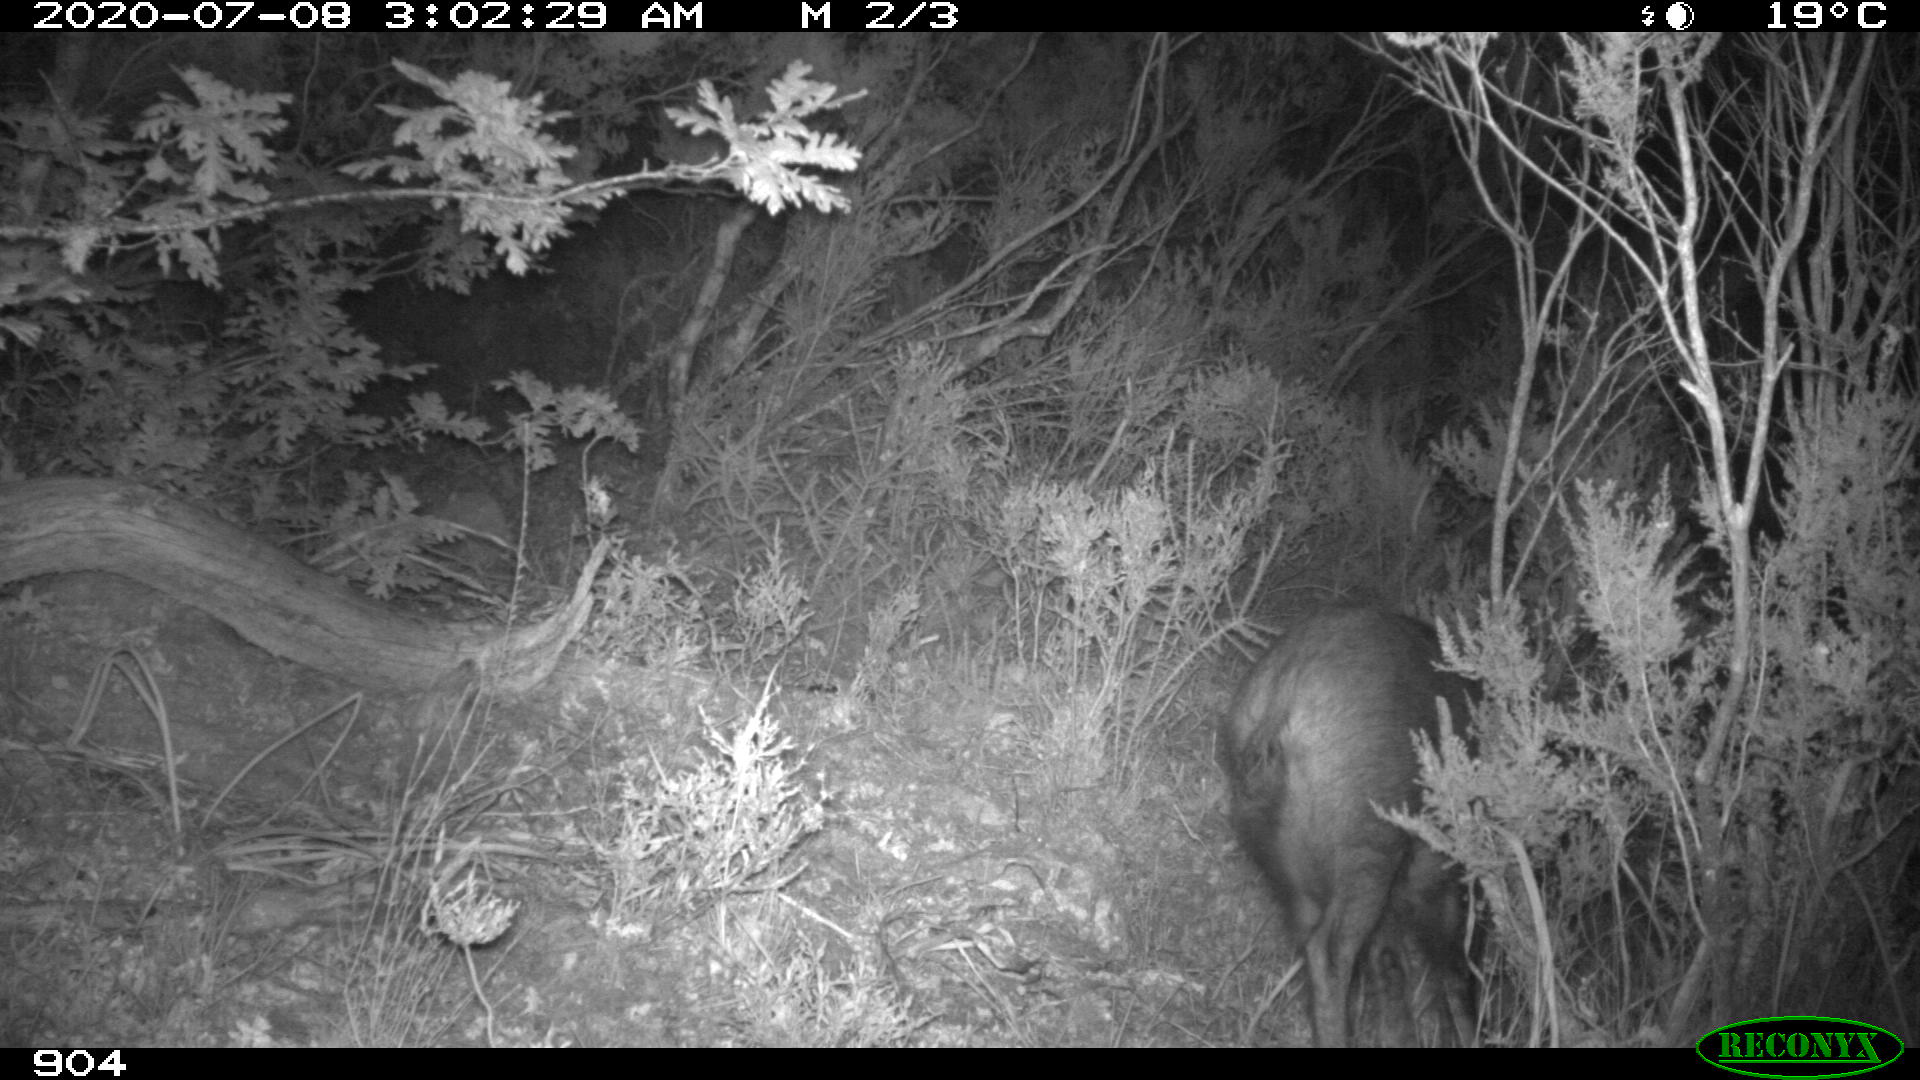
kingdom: Animalia
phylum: Chordata
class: Mammalia
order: Artiodactyla
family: Suidae
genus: Sus
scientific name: Sus scrofa
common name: Wild boar
